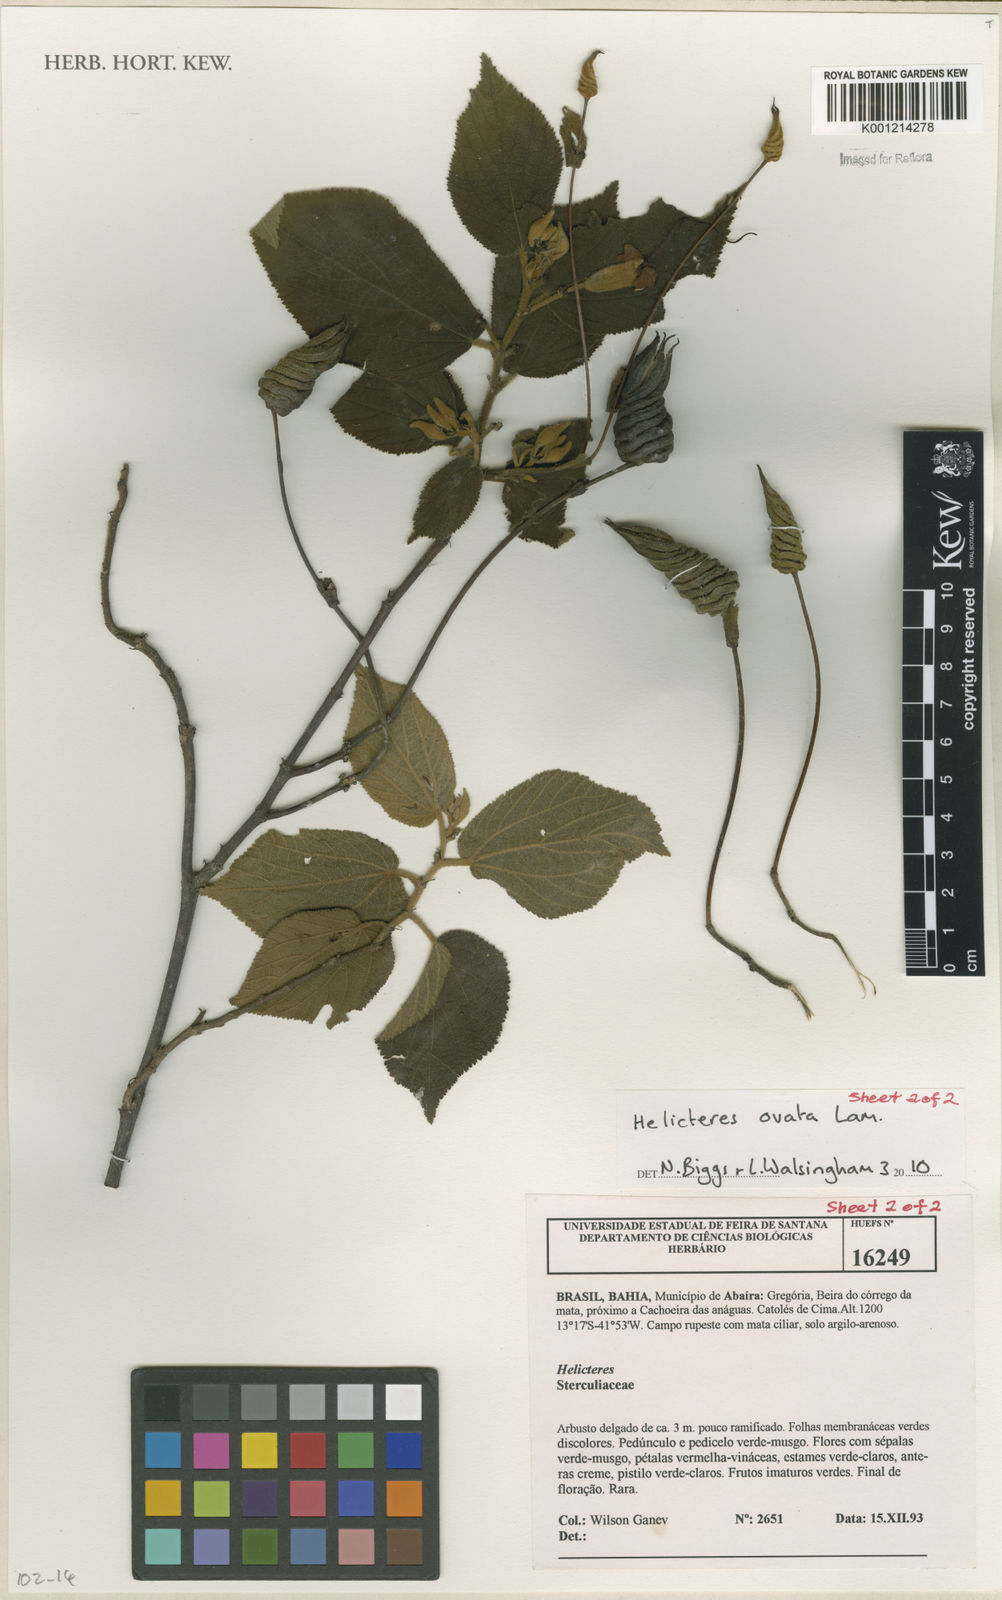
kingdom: Plantae
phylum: Tracheophyta
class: Magnoliopsida
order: Malvales
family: Malvaceae
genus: Helicteres
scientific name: Helicteres ovata
